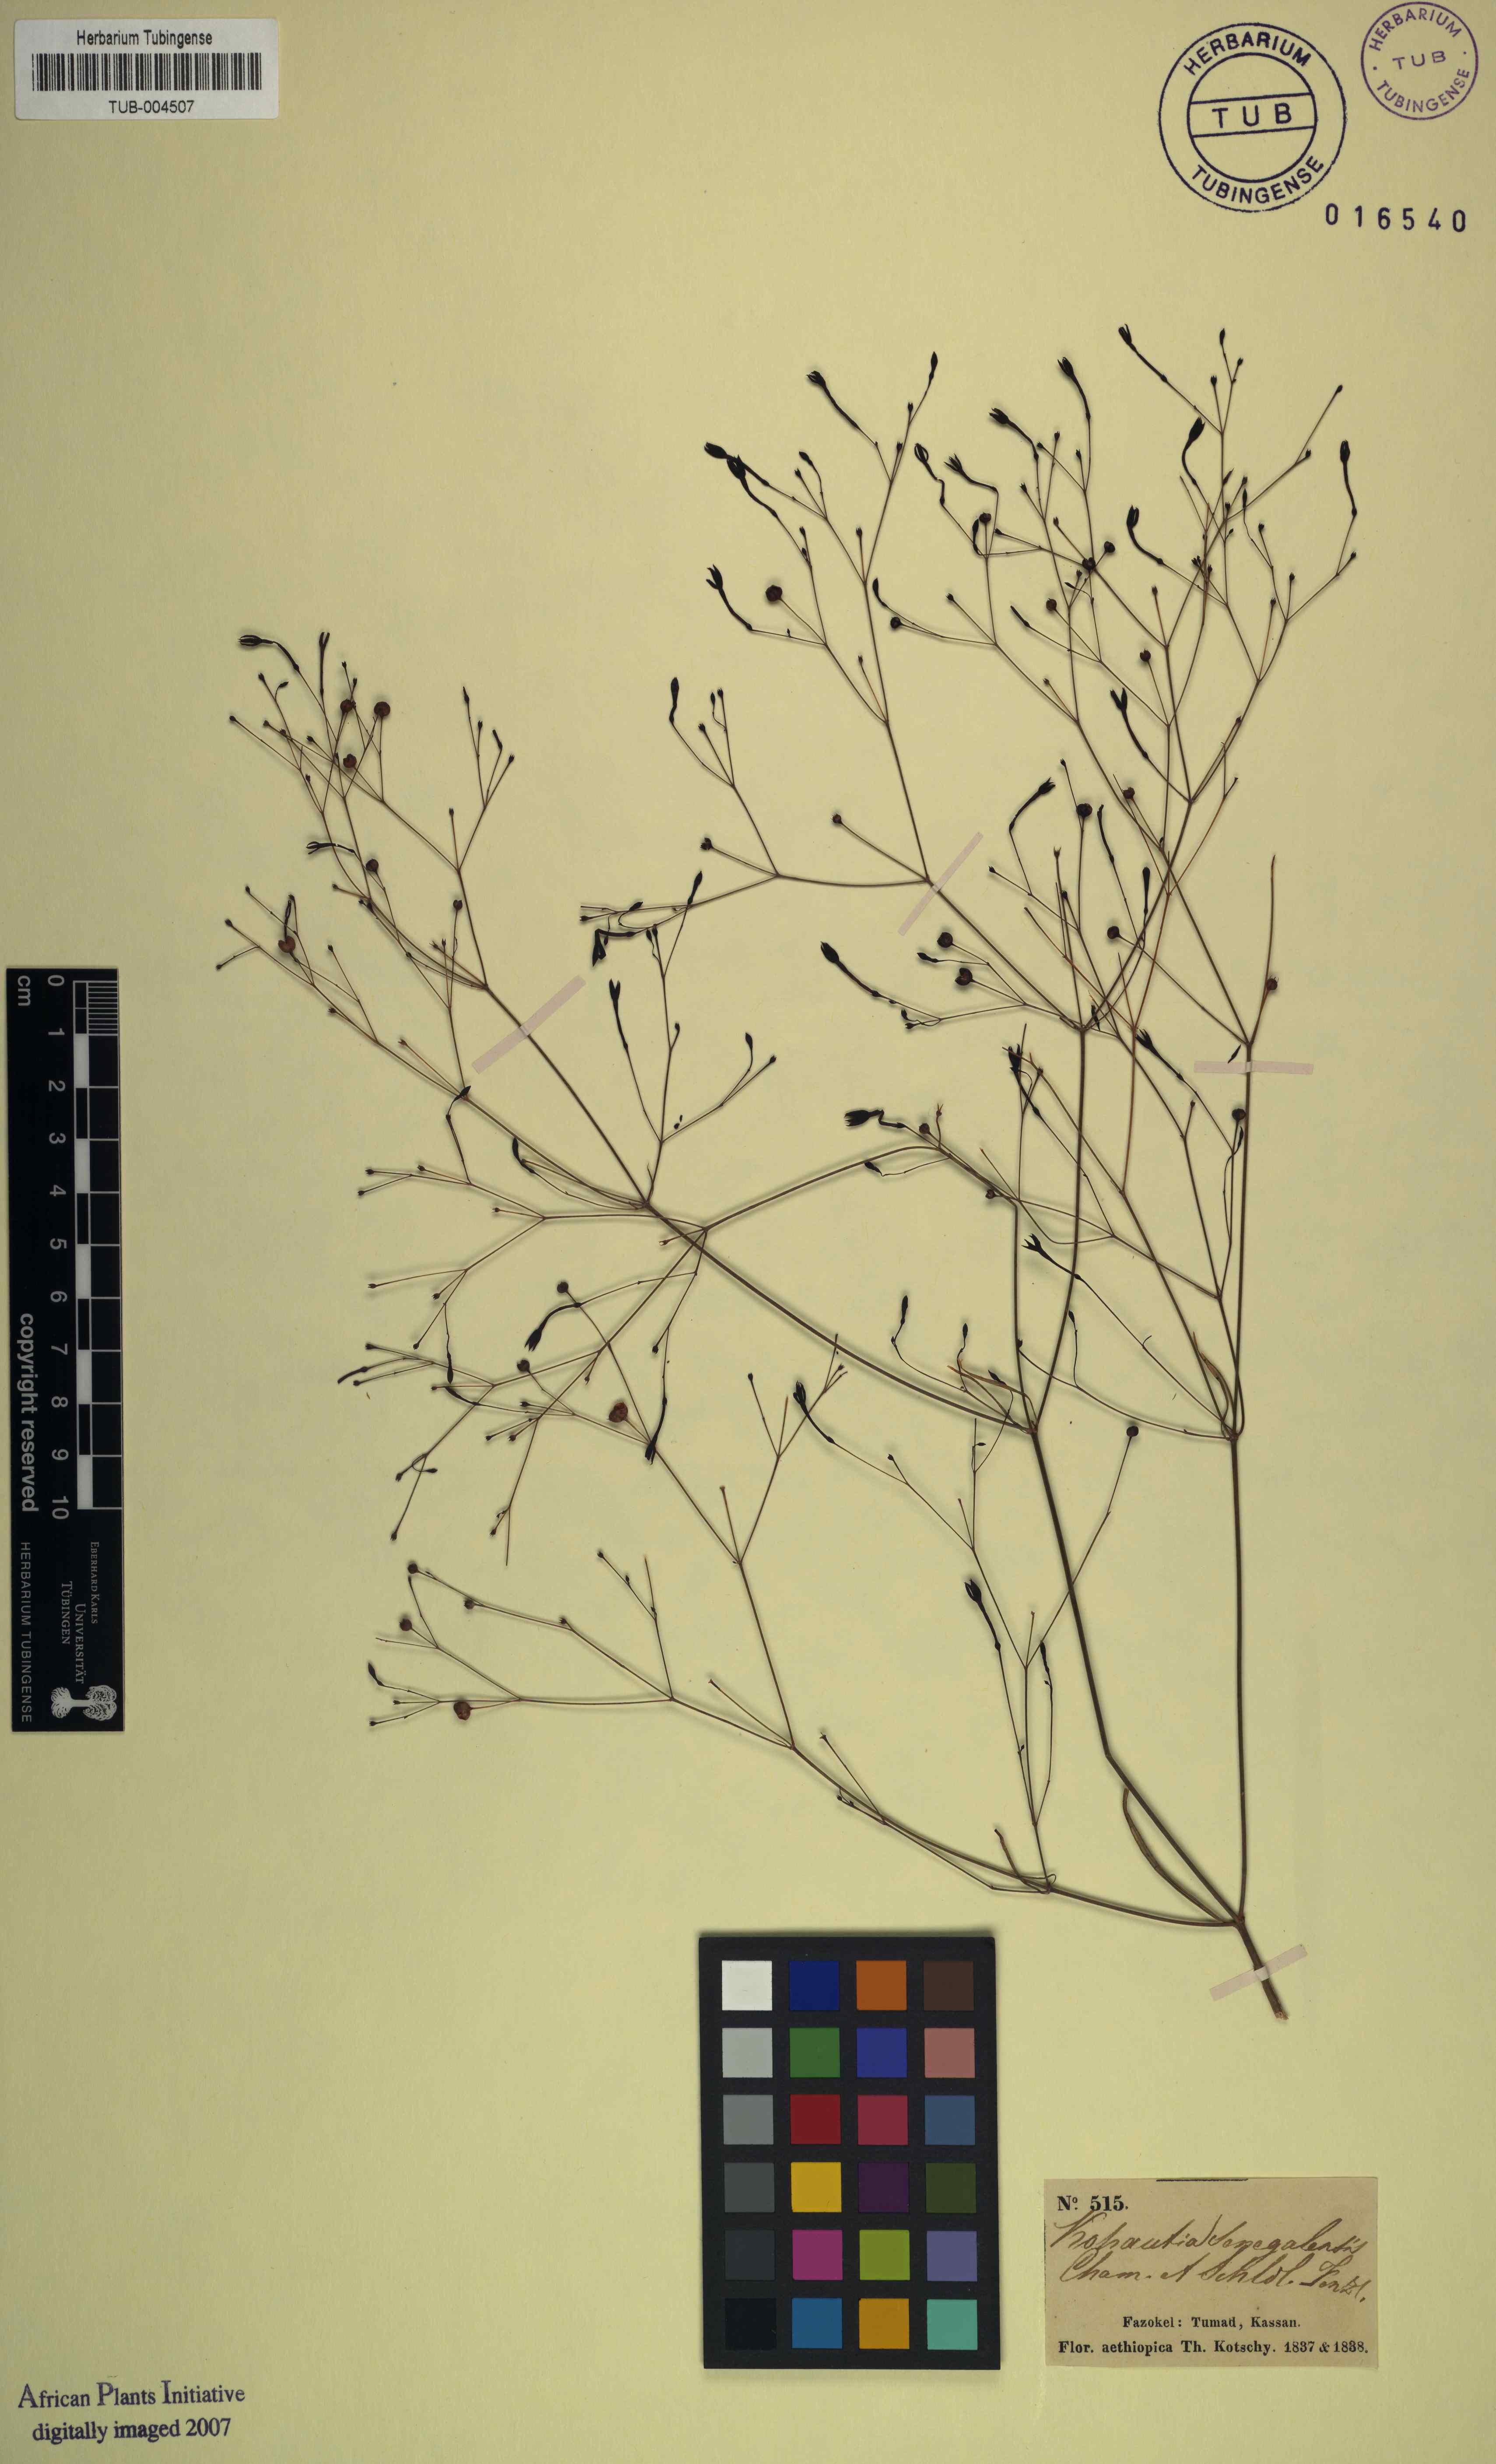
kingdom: Plantae
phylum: Tracheophyta
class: Magnoliopsida
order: Gentianales
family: Rubiaceae
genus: Kohautia
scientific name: Kohautia tenuis
